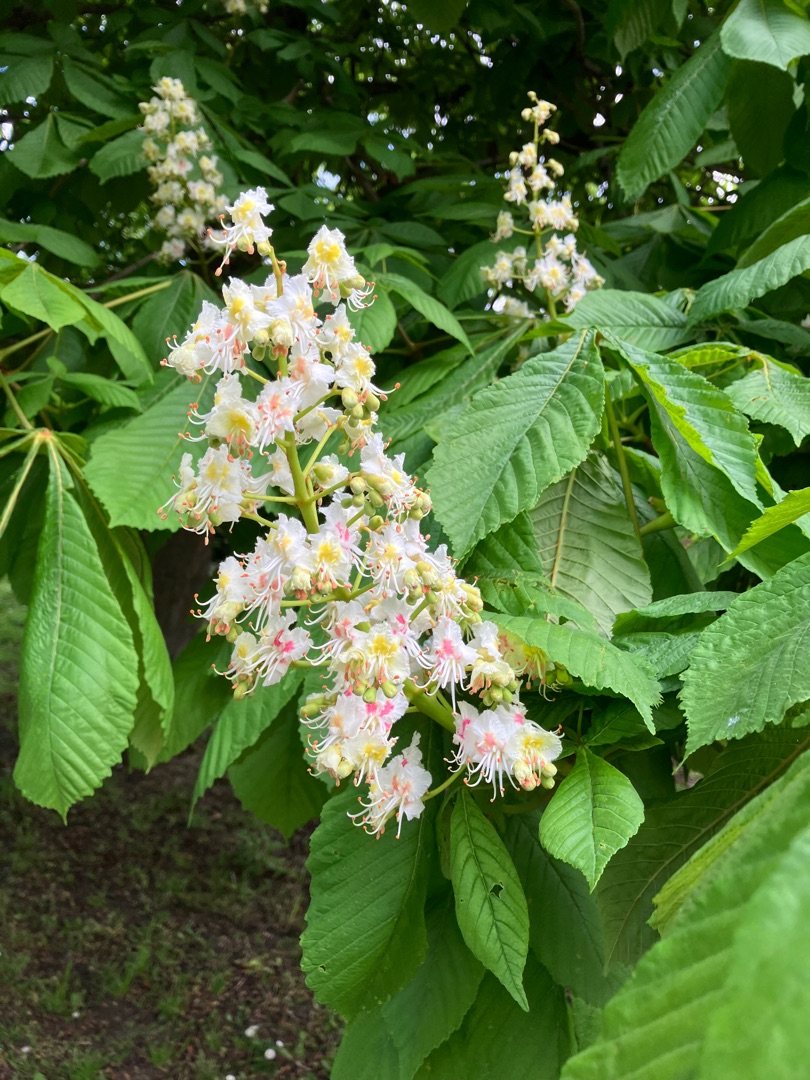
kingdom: Plantae
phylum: Tracheophyta
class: Magnoliopsida
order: Sapindales
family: Sapindaceae
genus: Aesculus
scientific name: Aesculus hippocastanum
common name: Hestekastanie
